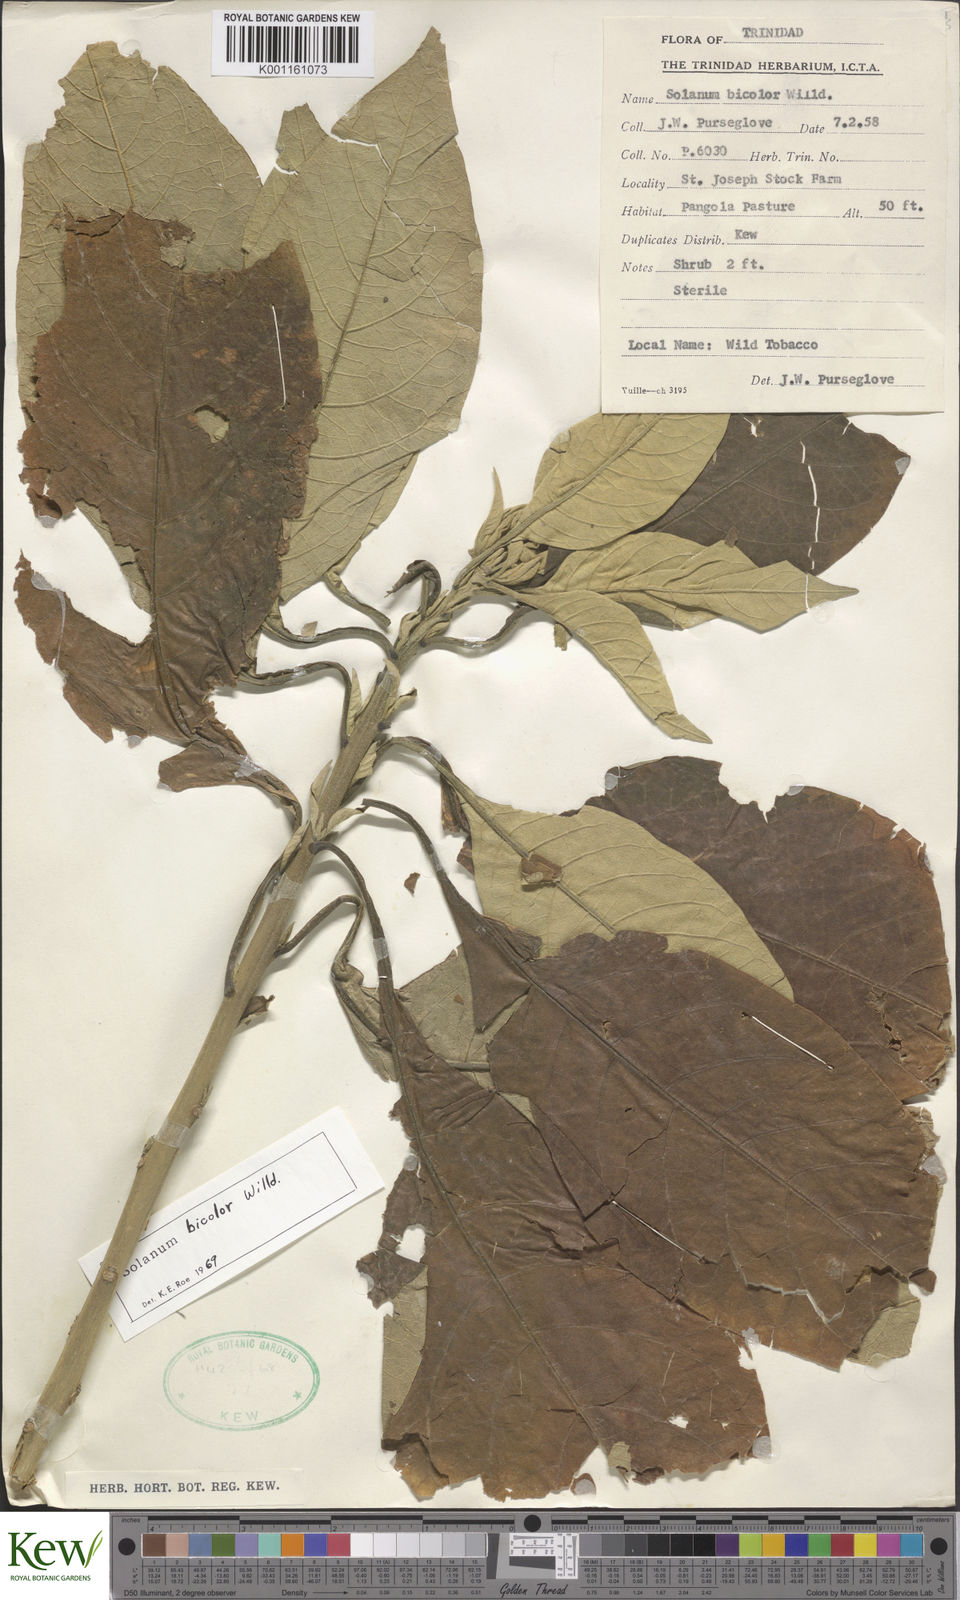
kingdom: Plantae
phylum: Tracheophyta
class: Magnoliopsida
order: Solanales
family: Solanaceae
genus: Solanum
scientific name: Solanum bicolor
